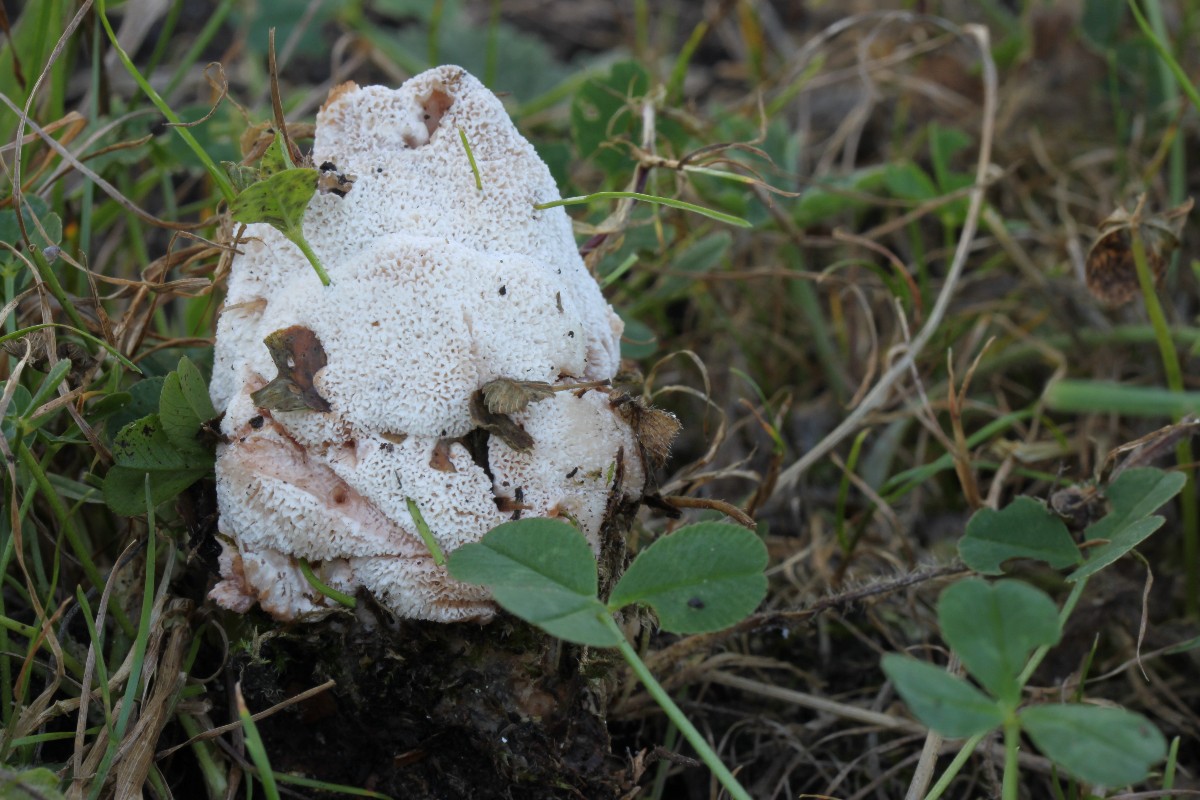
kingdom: Fungi
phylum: Basidiomycota
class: Agaricomycetes
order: Polyporales
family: Podoscyphaceae
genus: Abortiporus
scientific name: Abortiporus biennis
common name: rødmende pjalteporesvamp
